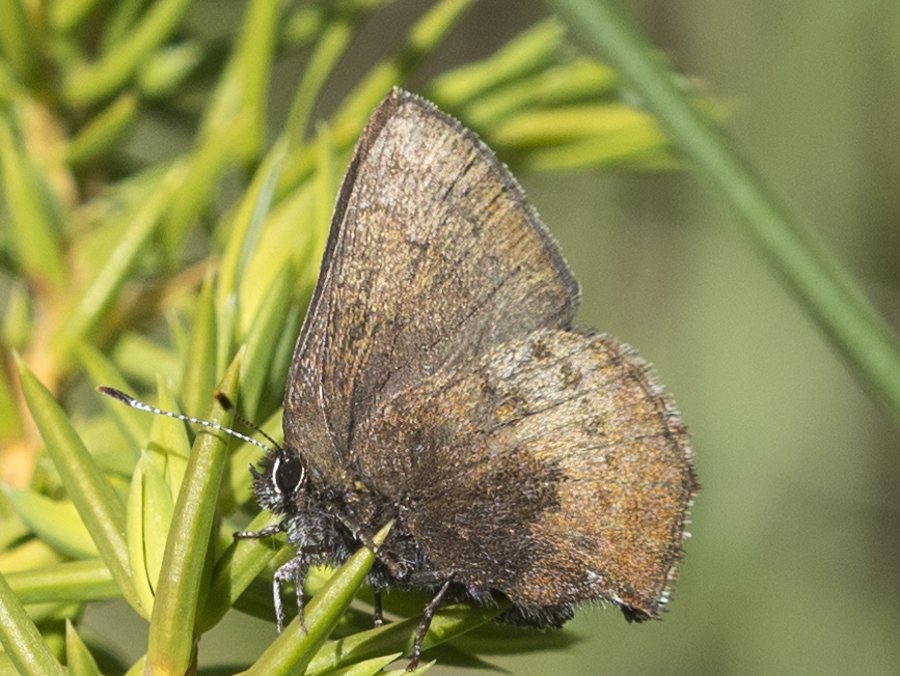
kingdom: Animalia
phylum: Arthropoda
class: Insecta
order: Lepidoptera
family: Lycaenidae
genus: Incisalia
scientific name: Incisalia irioides
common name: Brown Elfin
